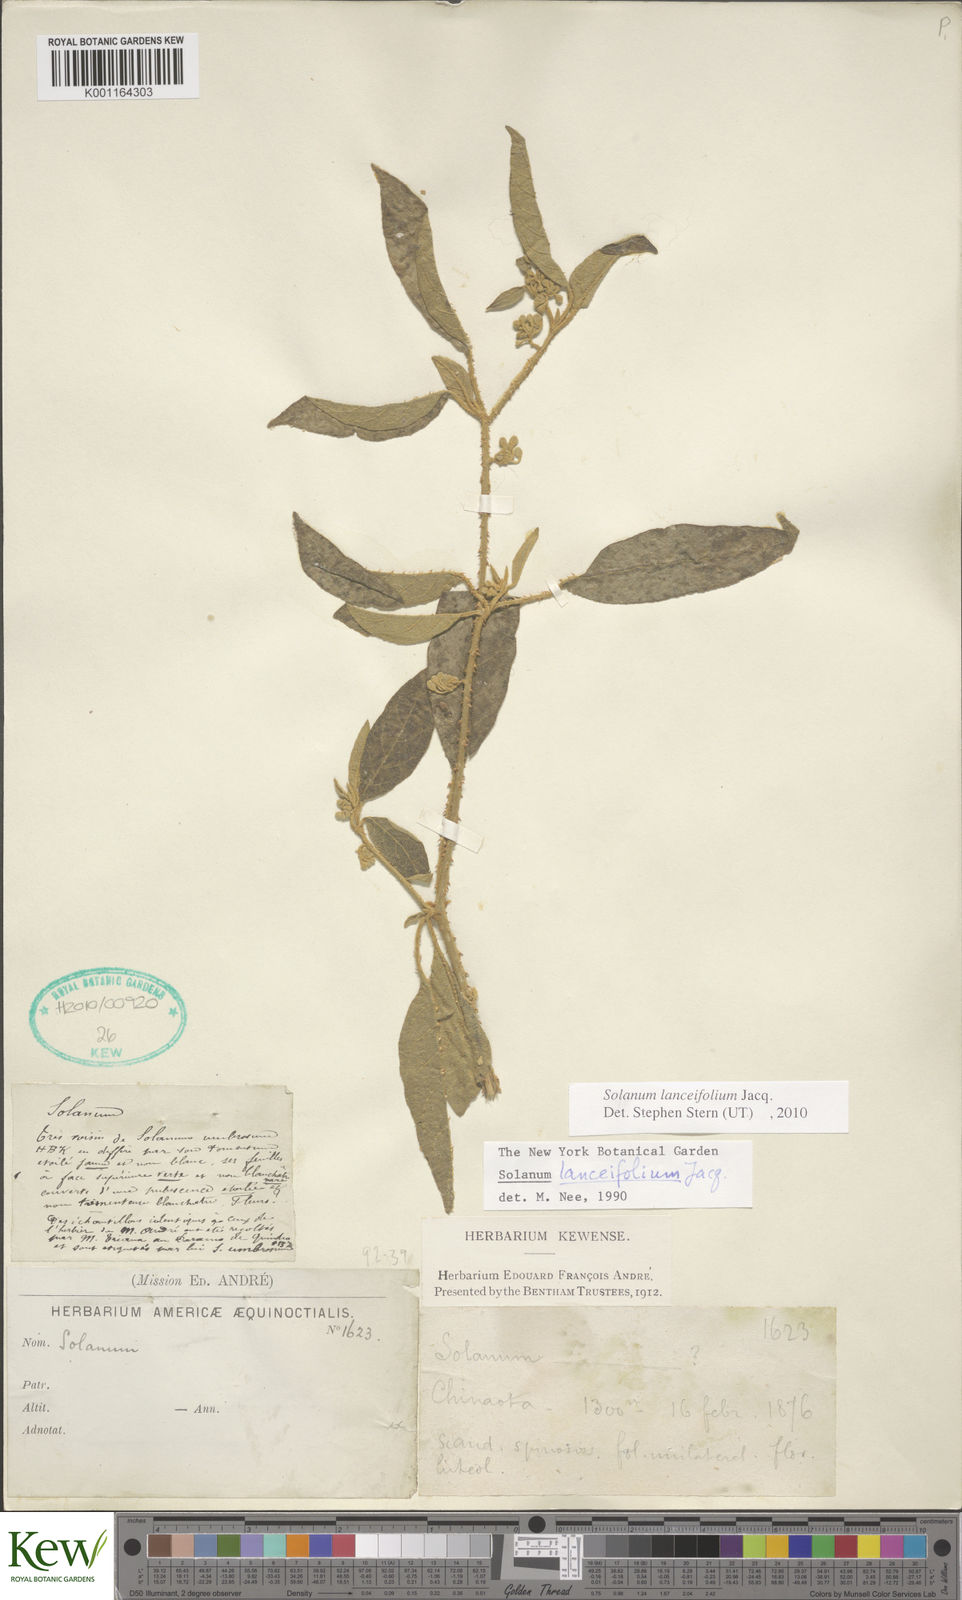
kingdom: Plantae
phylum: Tracheophyta
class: Magnoliopsida
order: Solanales
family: Solanaceae
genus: Solanum
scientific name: Solanum lanceifolium
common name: Lanceleaf nightshade
